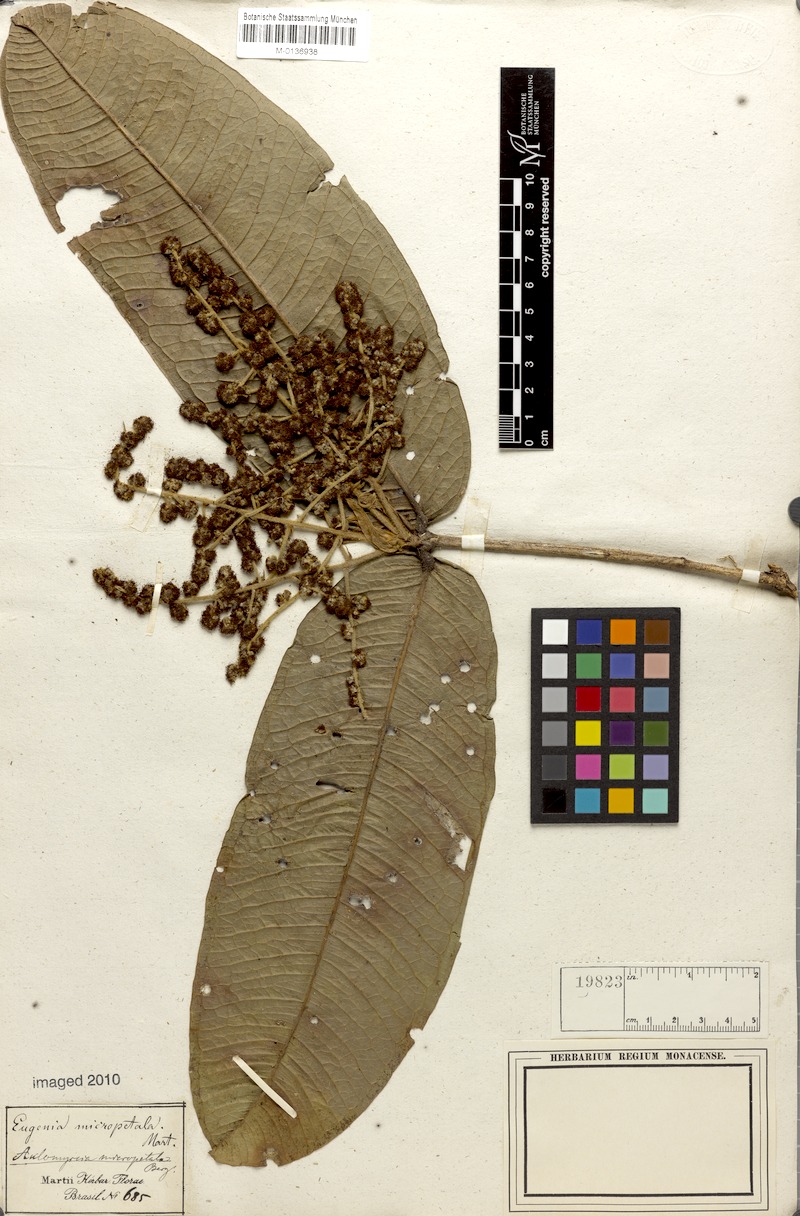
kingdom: Plantae
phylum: Tracheophyta
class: Magnoliopsida
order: Myrtales
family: Myrtaceae
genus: Myrcia
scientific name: Myrcia micropetala
